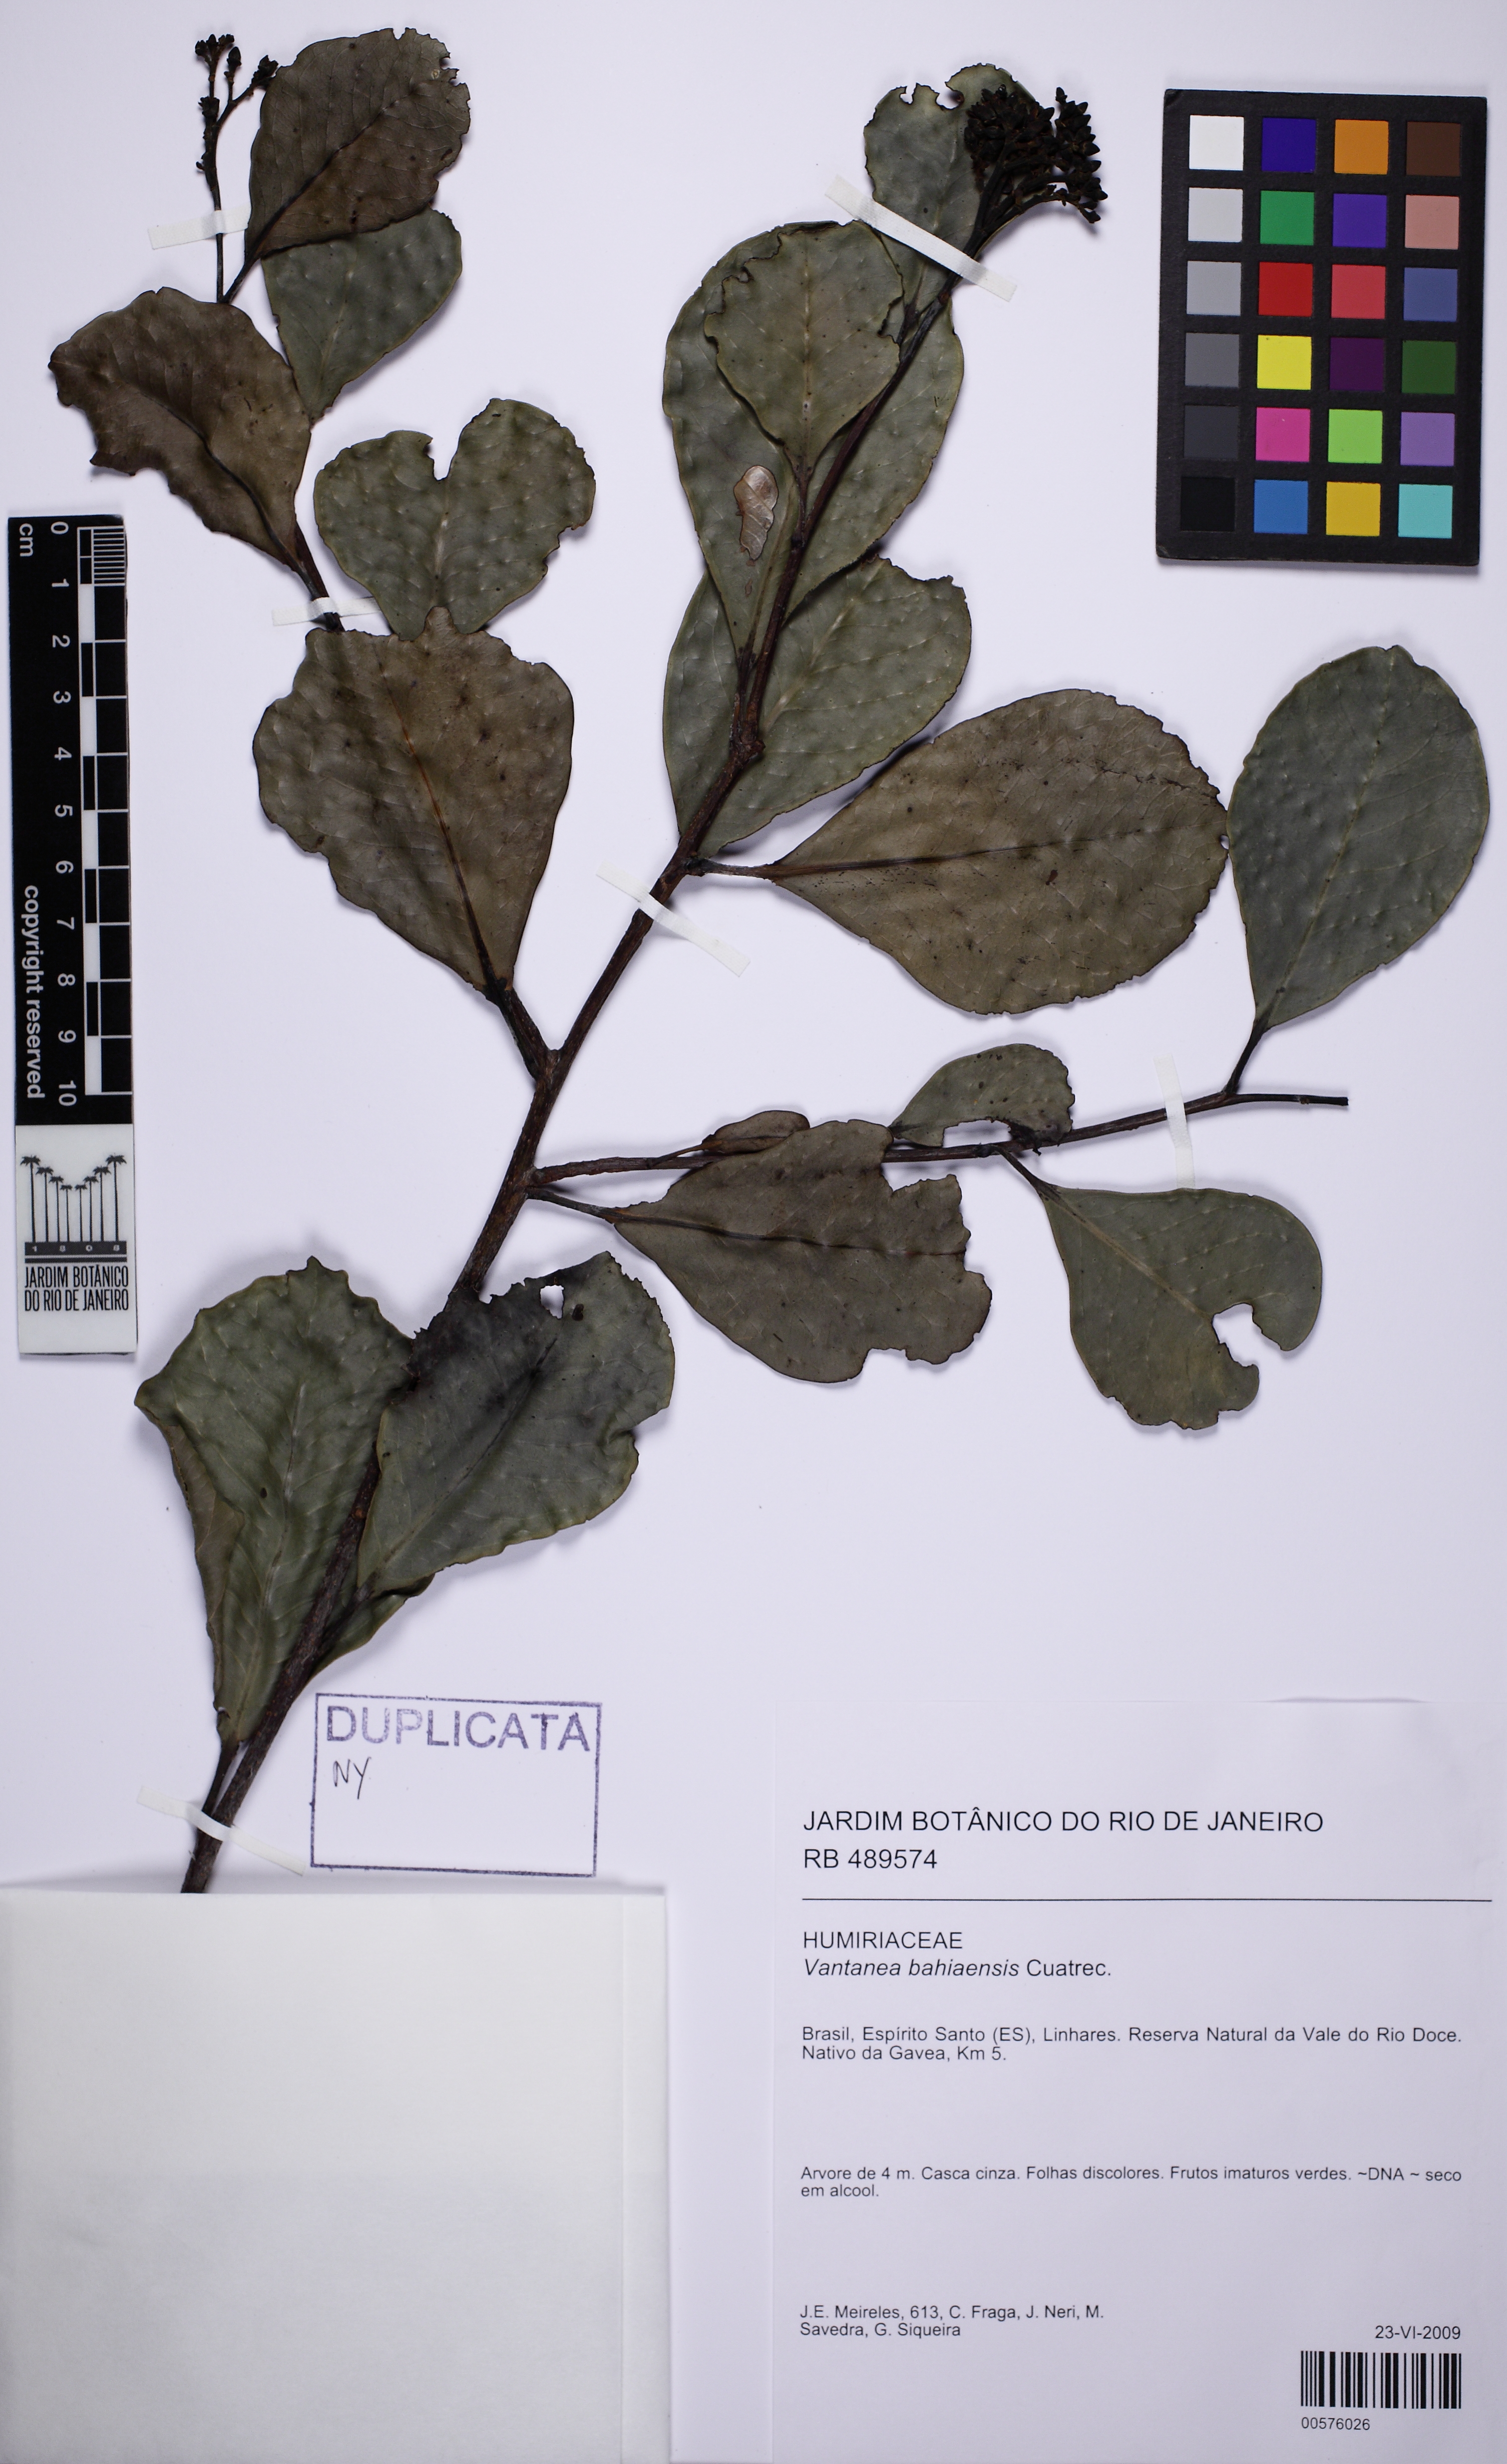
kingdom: Plantae
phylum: Tracheophyta
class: Magnoliopsida
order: Malpighiales
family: Humiriaceae
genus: Vantanea
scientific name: Vantanea bahiaensis
